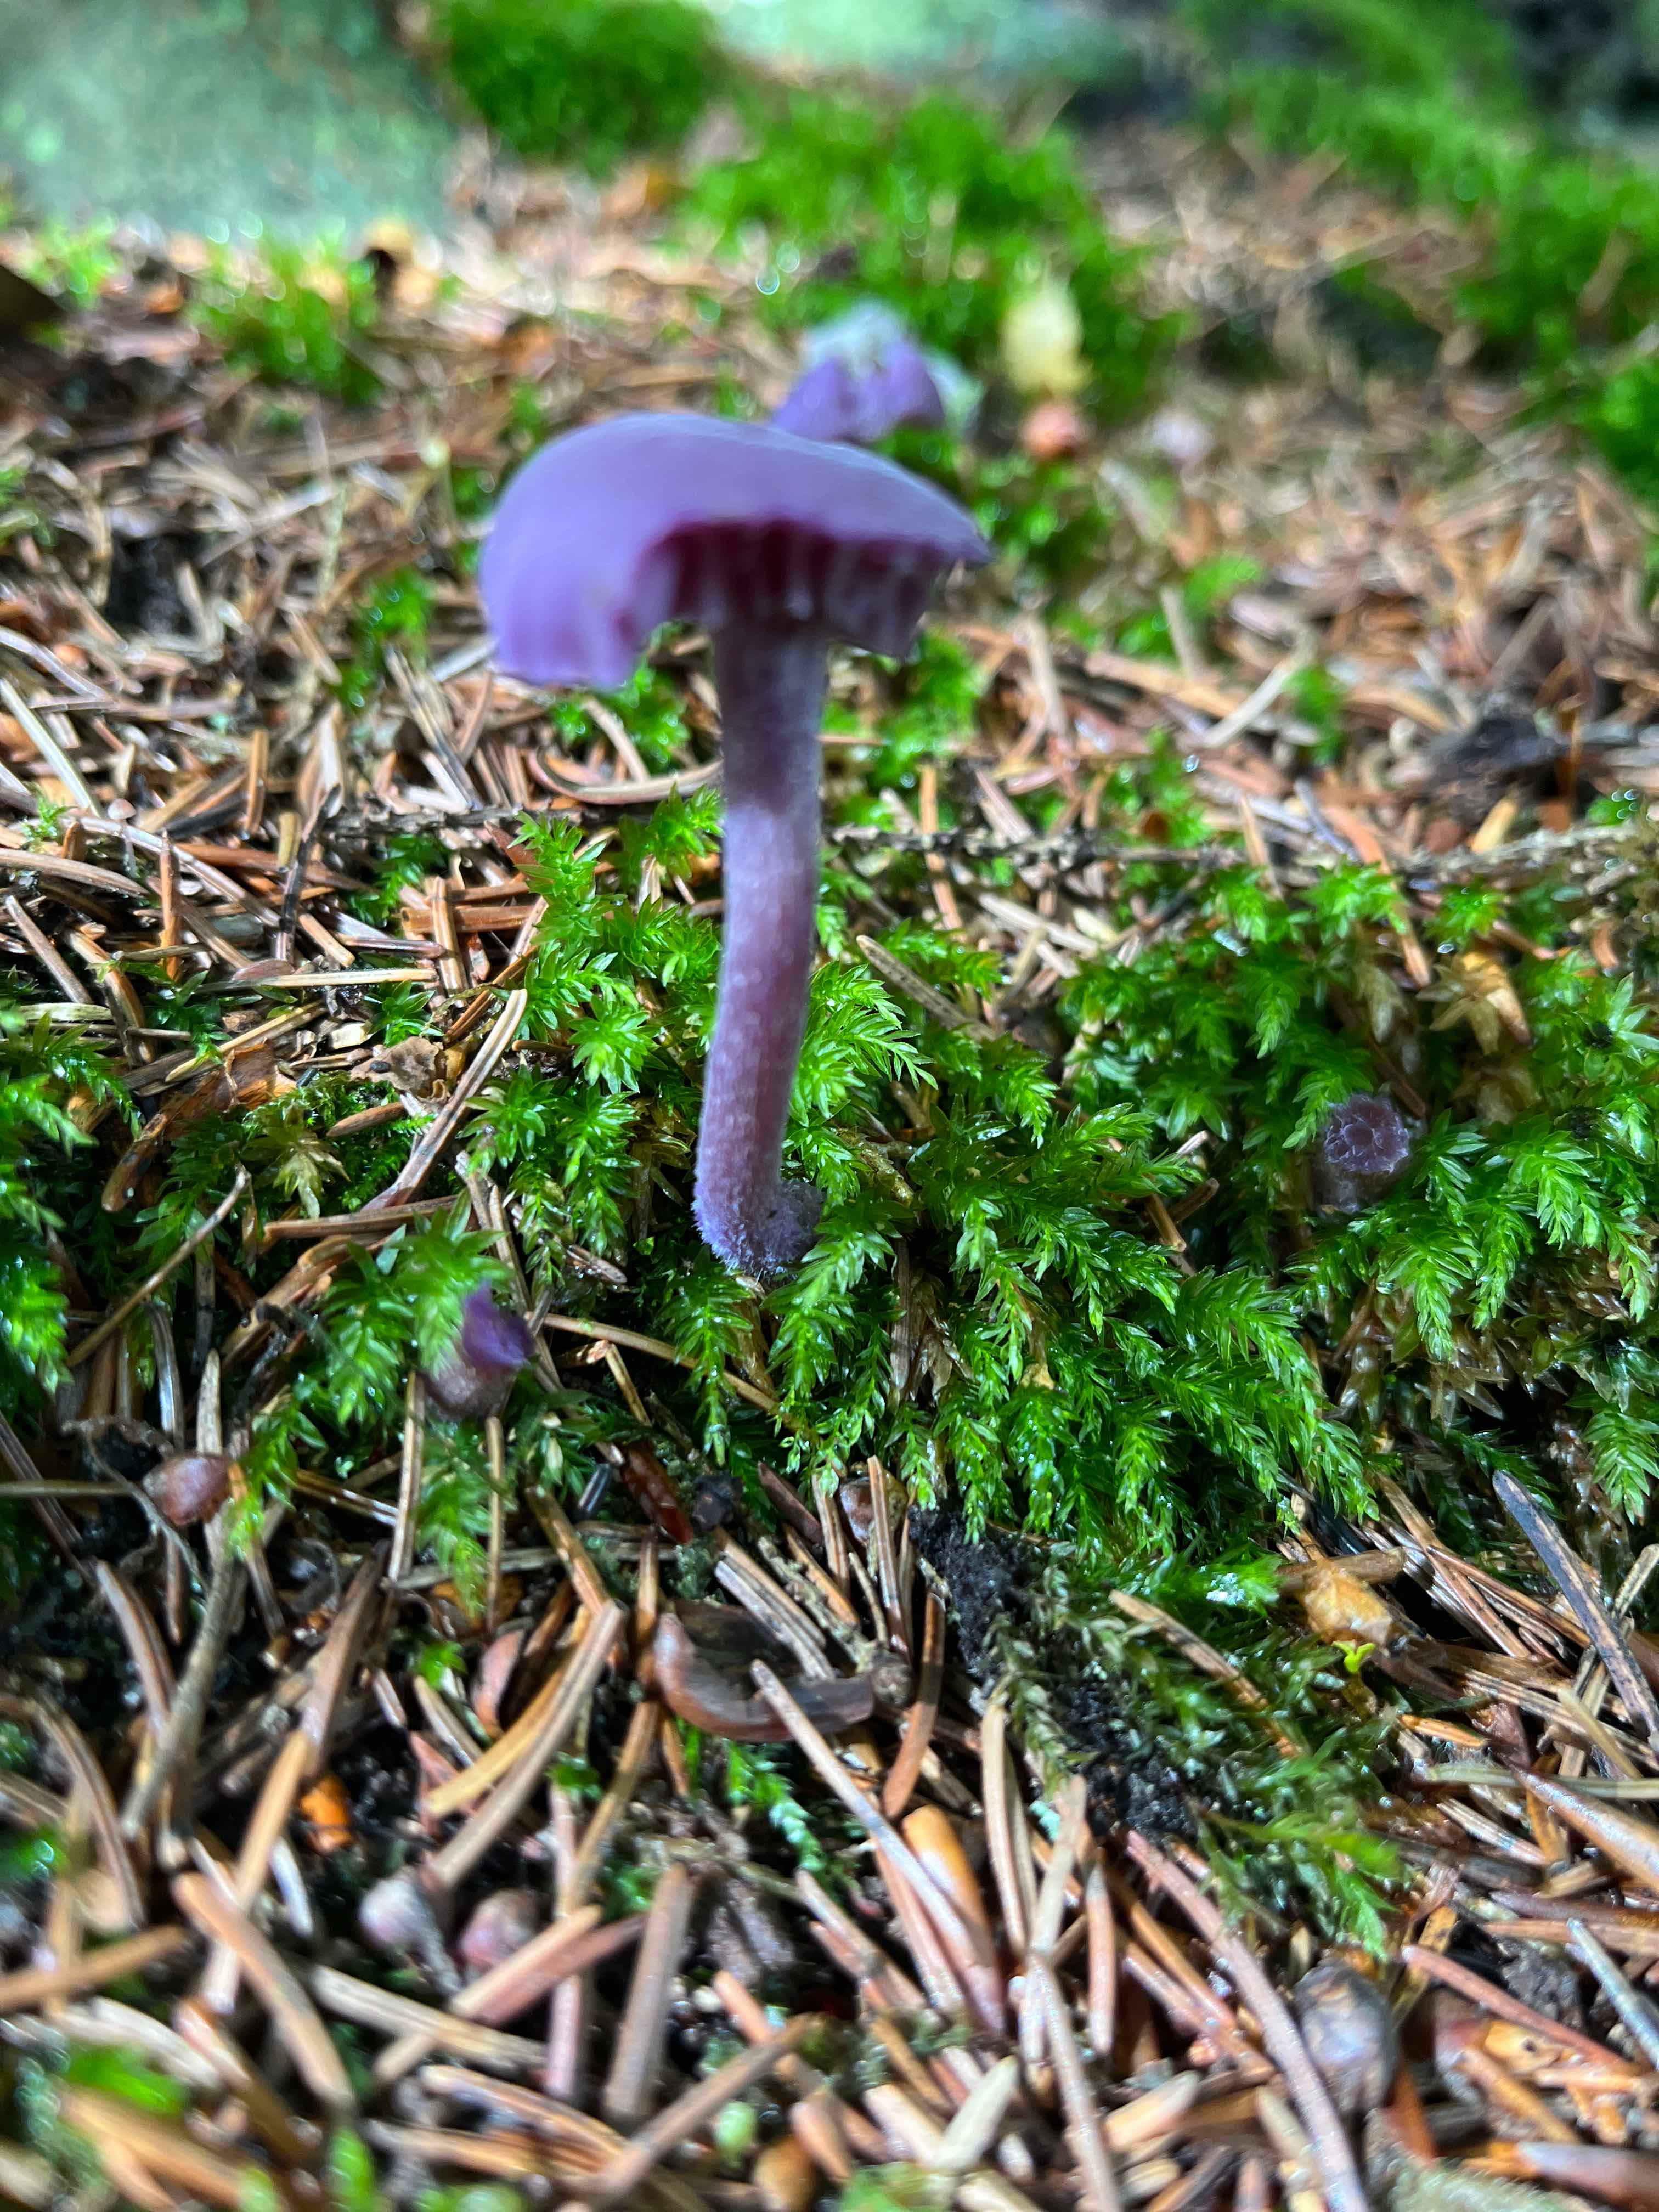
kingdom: Fungi
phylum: Basidiomycota
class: Agaricomycetes
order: Agaricales
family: Hydnangiaceae
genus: Laccaria
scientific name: Laccaria amethystina
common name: violet ametysthat
